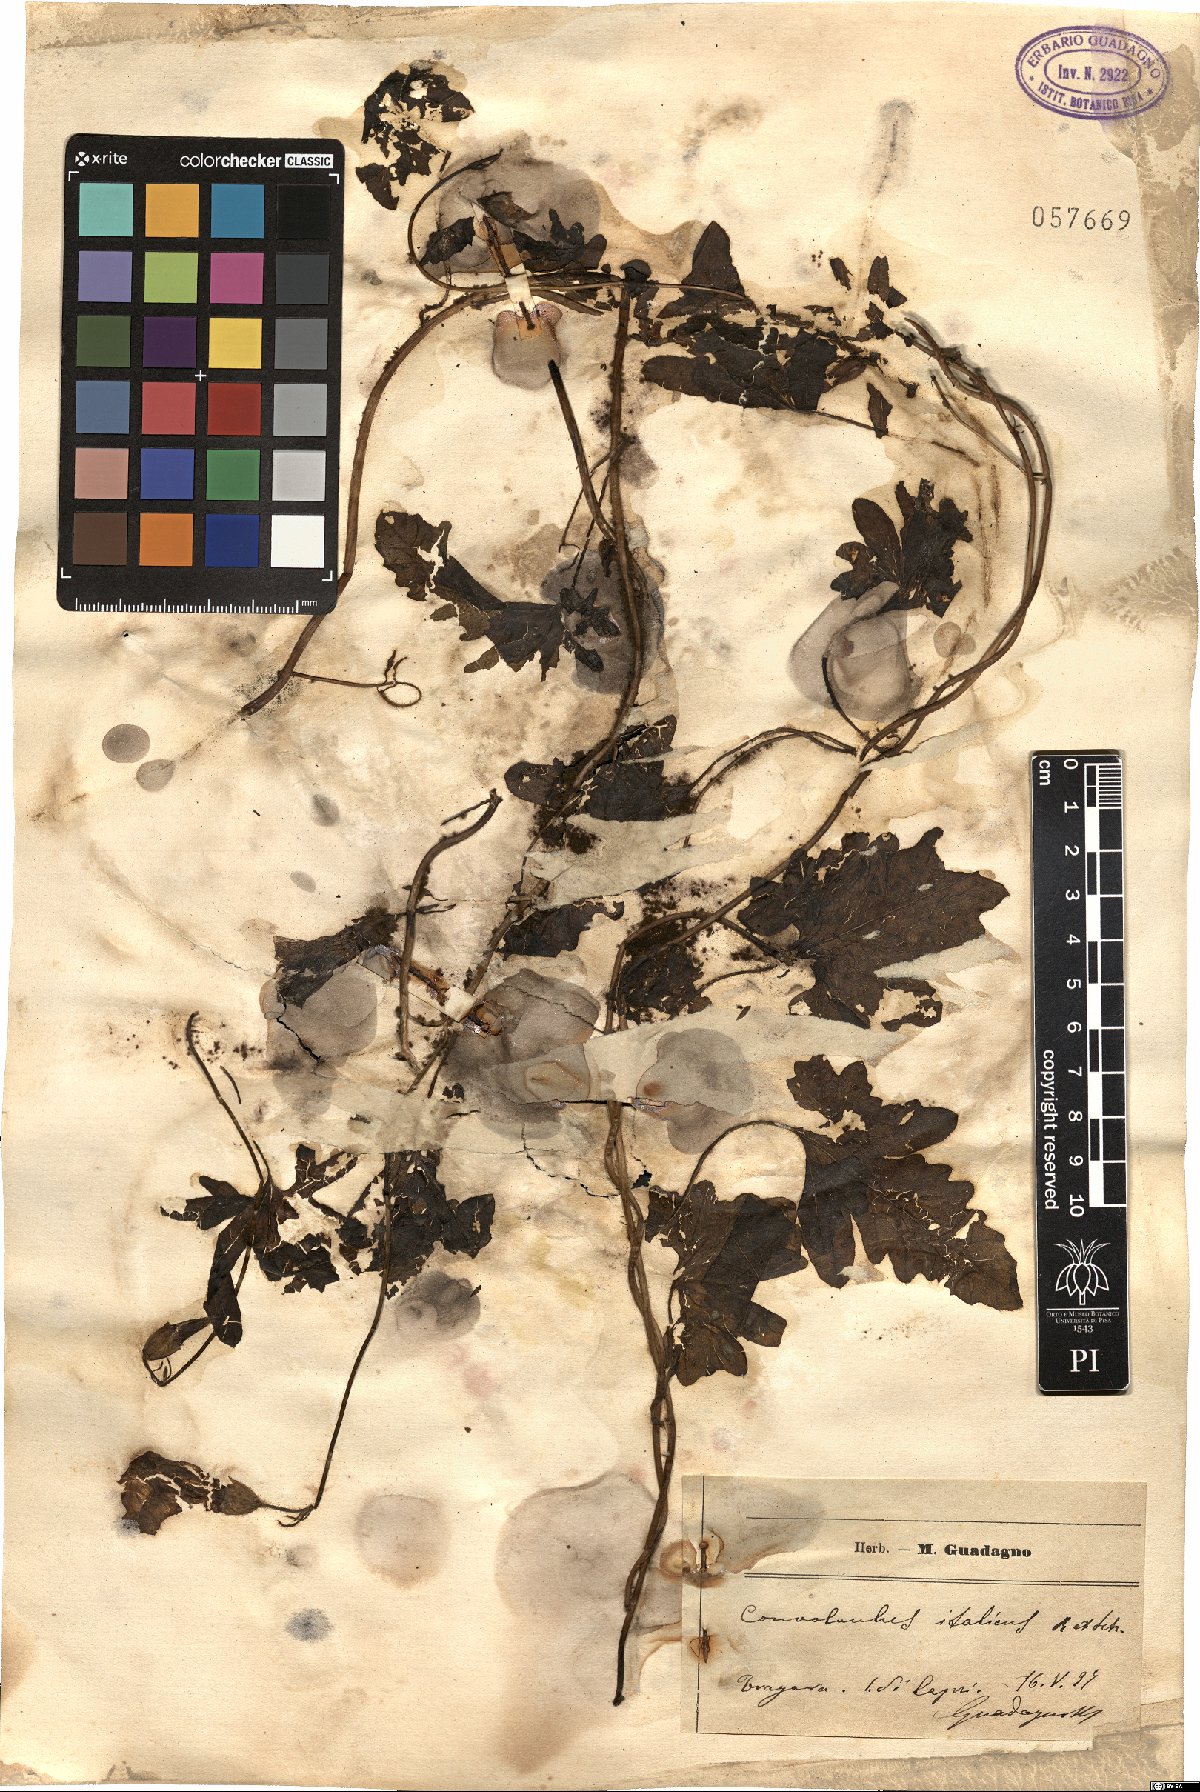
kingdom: Plantae
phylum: Tracheophyta
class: Magnoliopsida
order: Solanales
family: Convolvulaceae
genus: Convolvulus
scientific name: Convolvulus althaeoides
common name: Mallow bindweed
